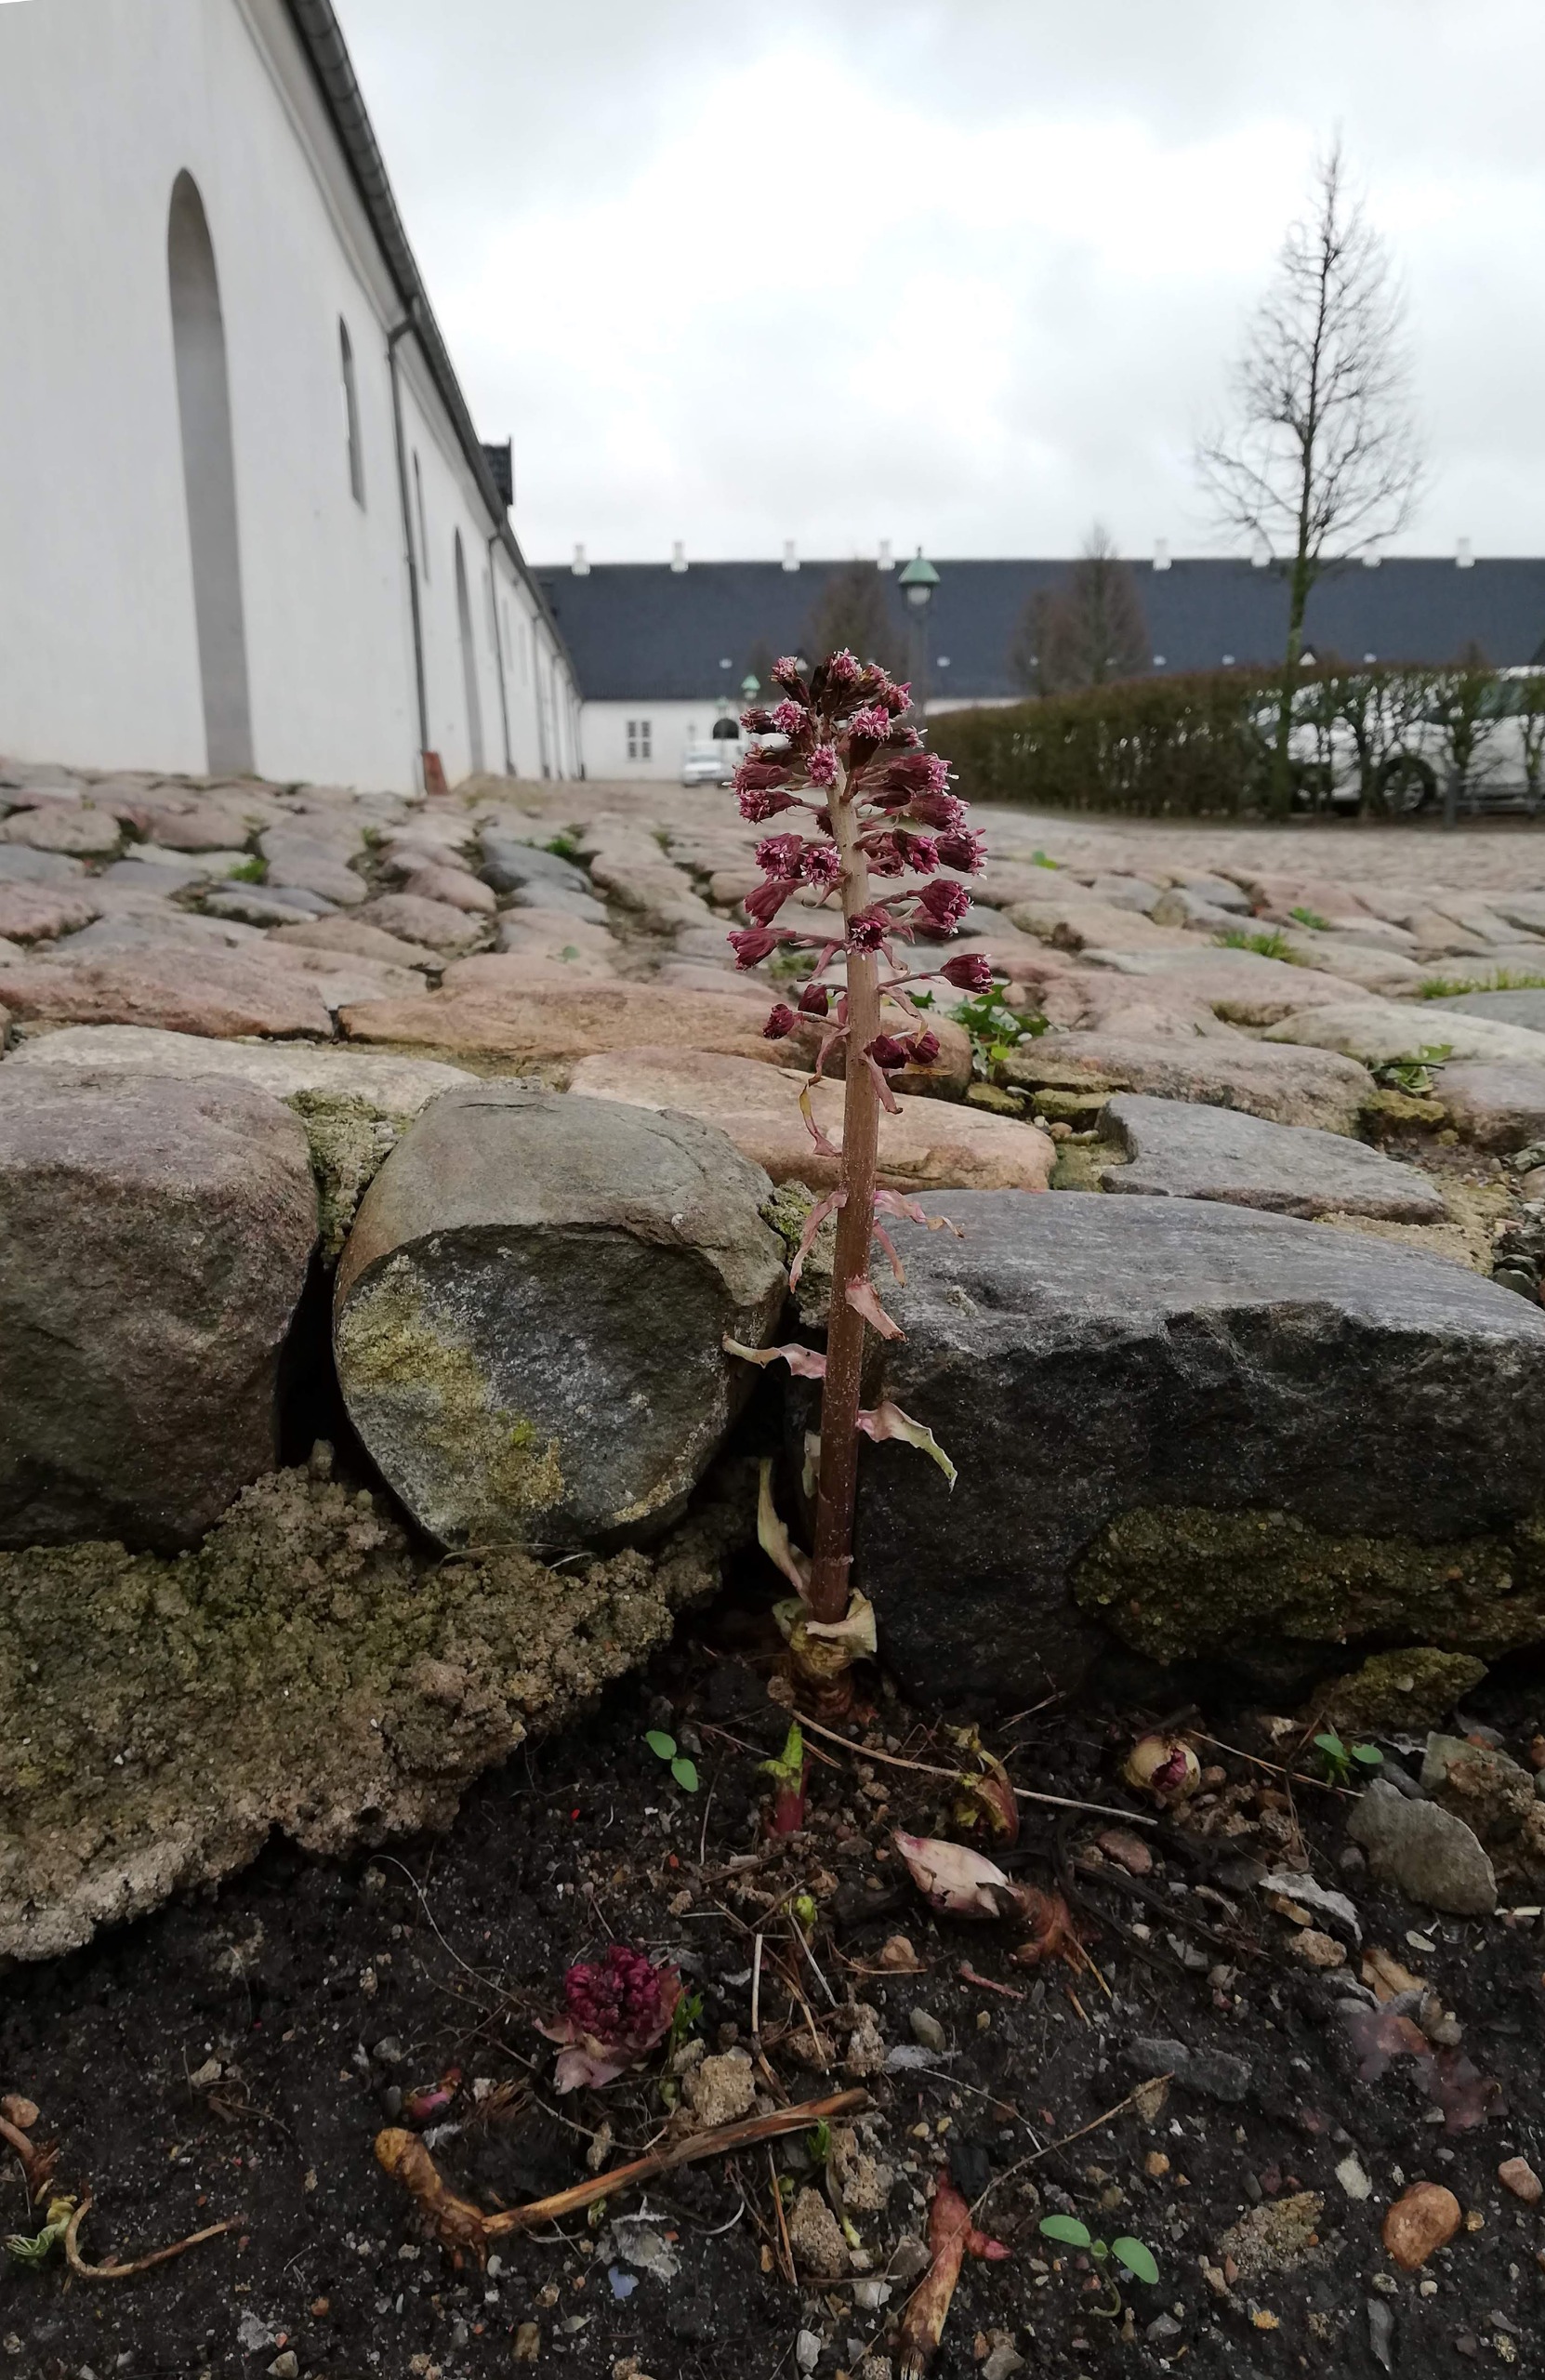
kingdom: Plantae
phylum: Tracheophyta
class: Magnoliopsida
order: Asterales
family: Asteraceae
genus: Petasites
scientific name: Petasites hybridus
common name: Rød hestehov
